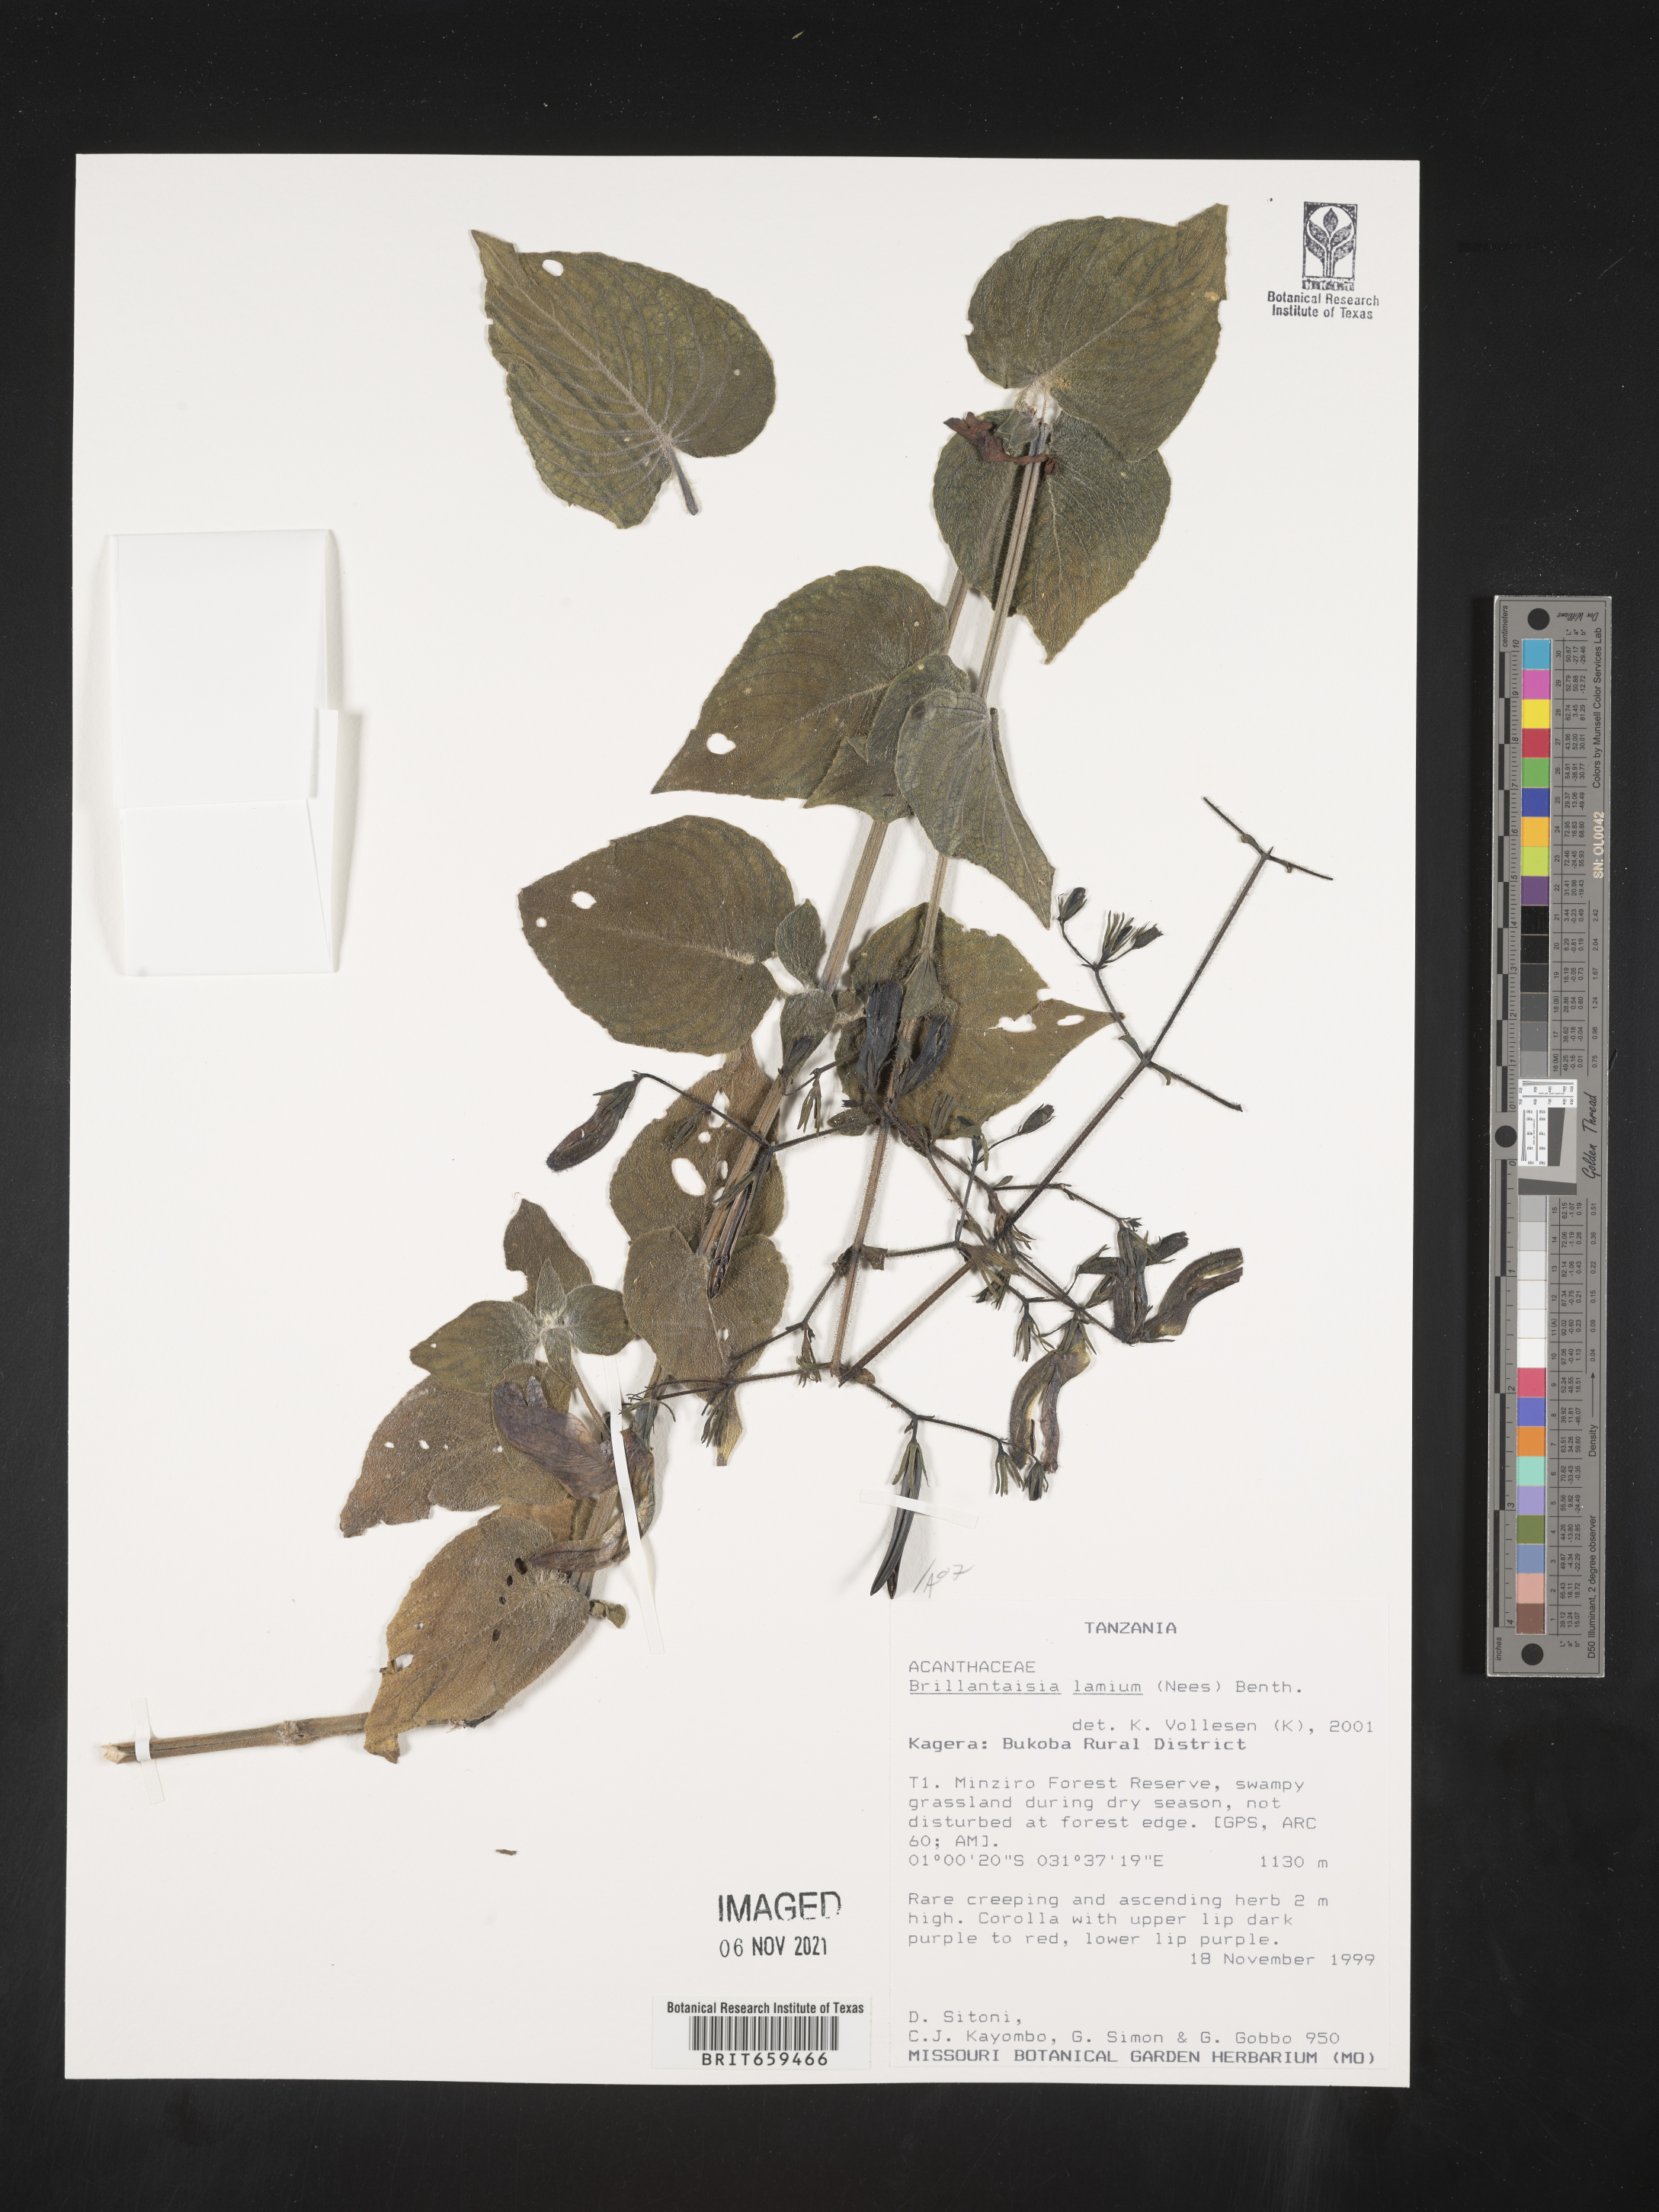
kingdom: Plantae
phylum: Tracheophyta
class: Magnoliopsida
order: Lamiales
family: Acanthaceae
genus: Brillantaisia
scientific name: Brillantaisia lamium
